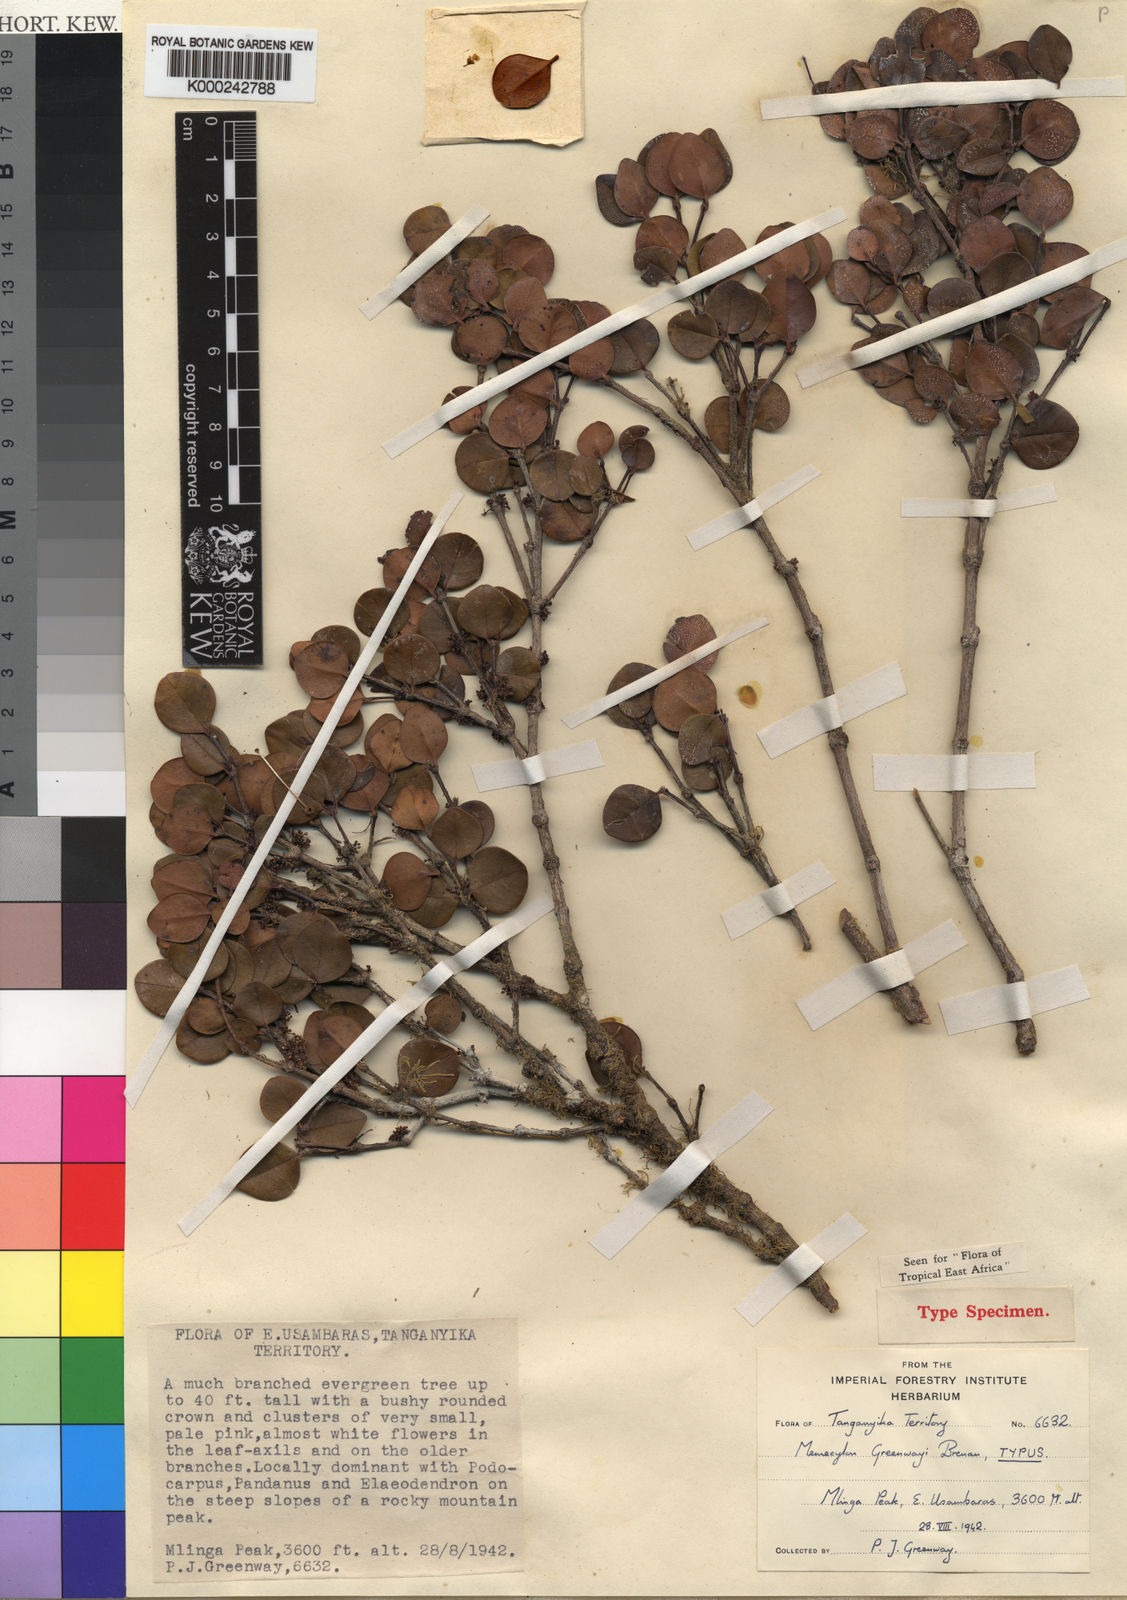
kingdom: Plantae
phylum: Tracheophyta
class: Magnoliopsida
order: Myrtales
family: Melastomataceae
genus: Memecylon
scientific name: Memecylon greenwayi
